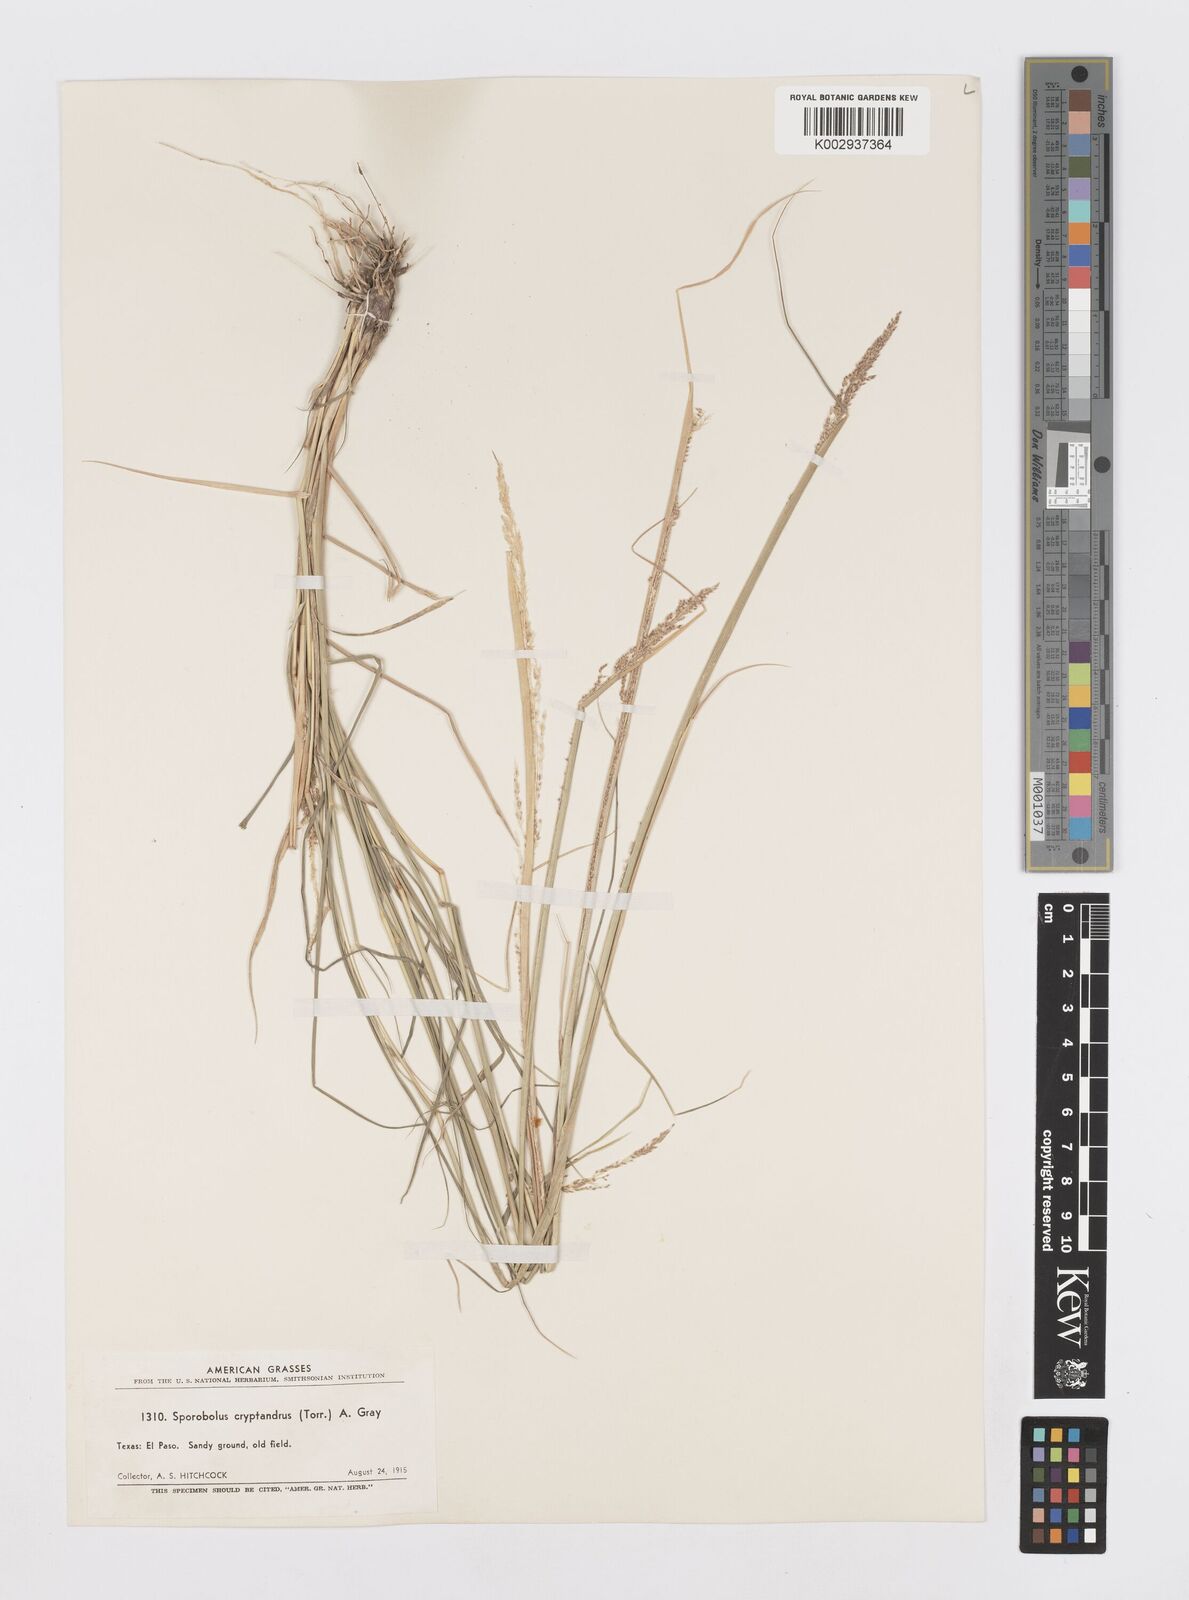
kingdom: Plantae
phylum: Tracheophyta
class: Liliopsida
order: Poales
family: Poaceae
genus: Sporobolus
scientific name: Sporobolus cryptandrus
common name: Sand dropseed
